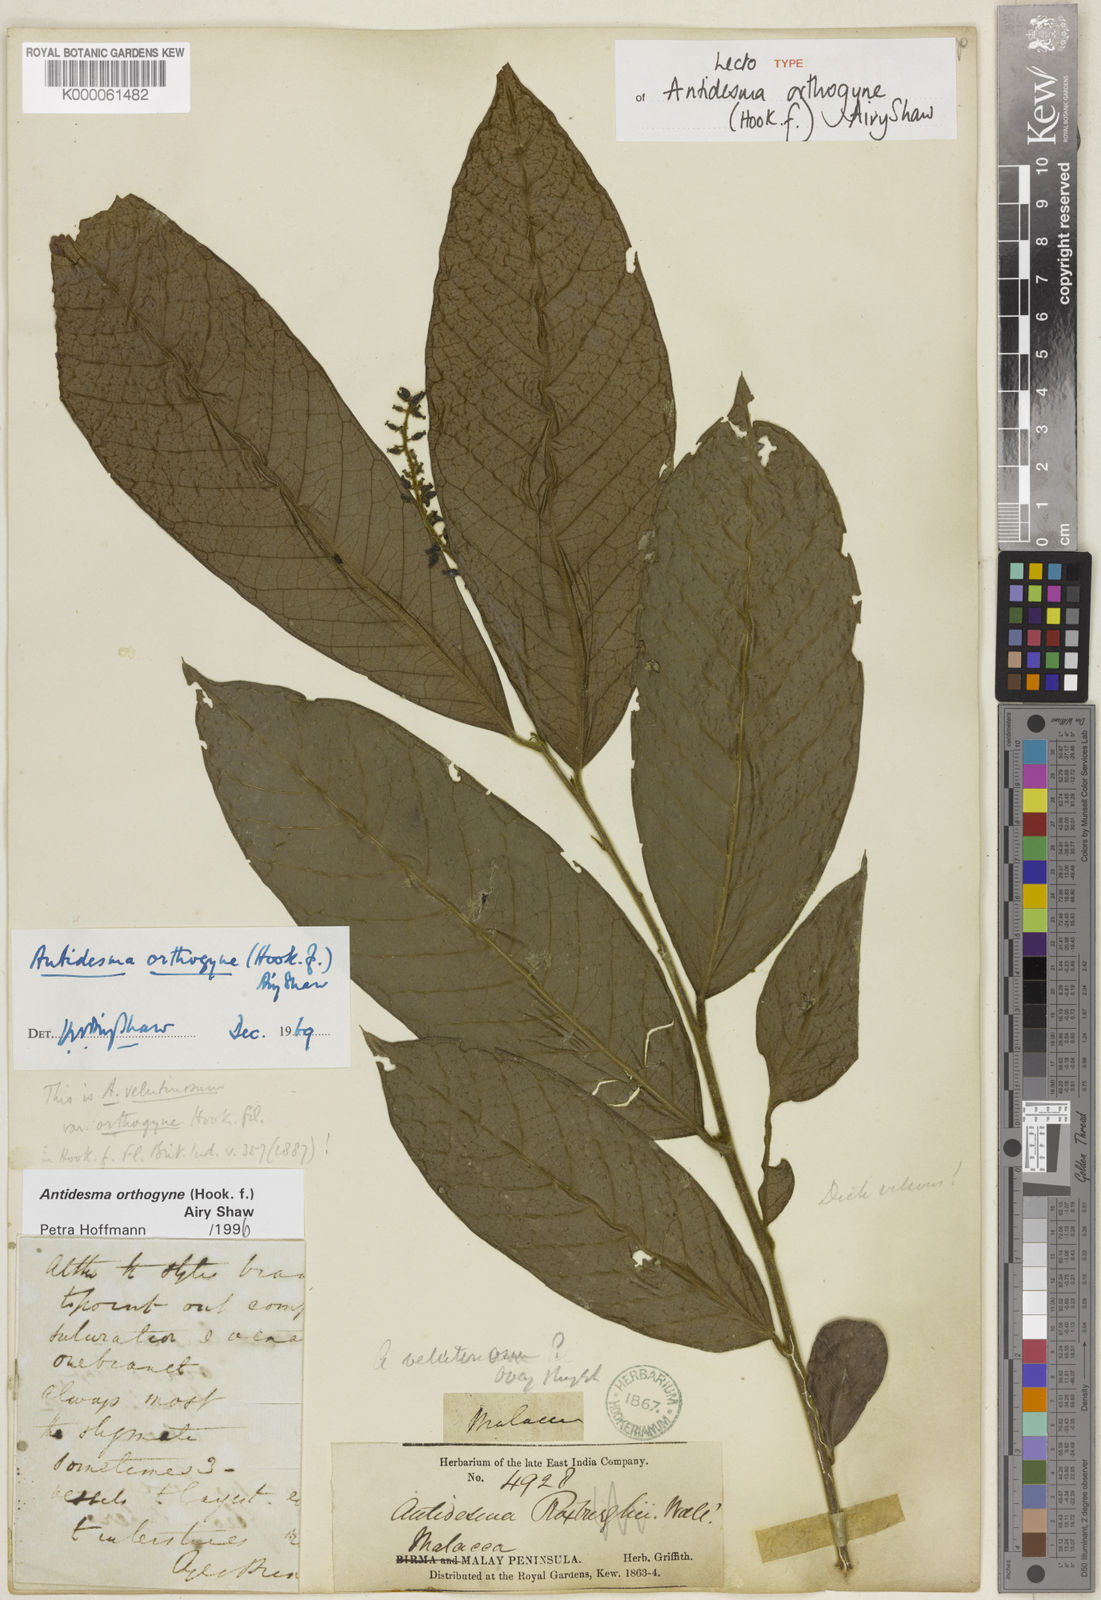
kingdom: Plantae
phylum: Tracheophyta
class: Magnoliopsida
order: Malpighiales
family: Phyllanthaceae
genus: Antidesma
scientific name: Antidesma orthogyne
